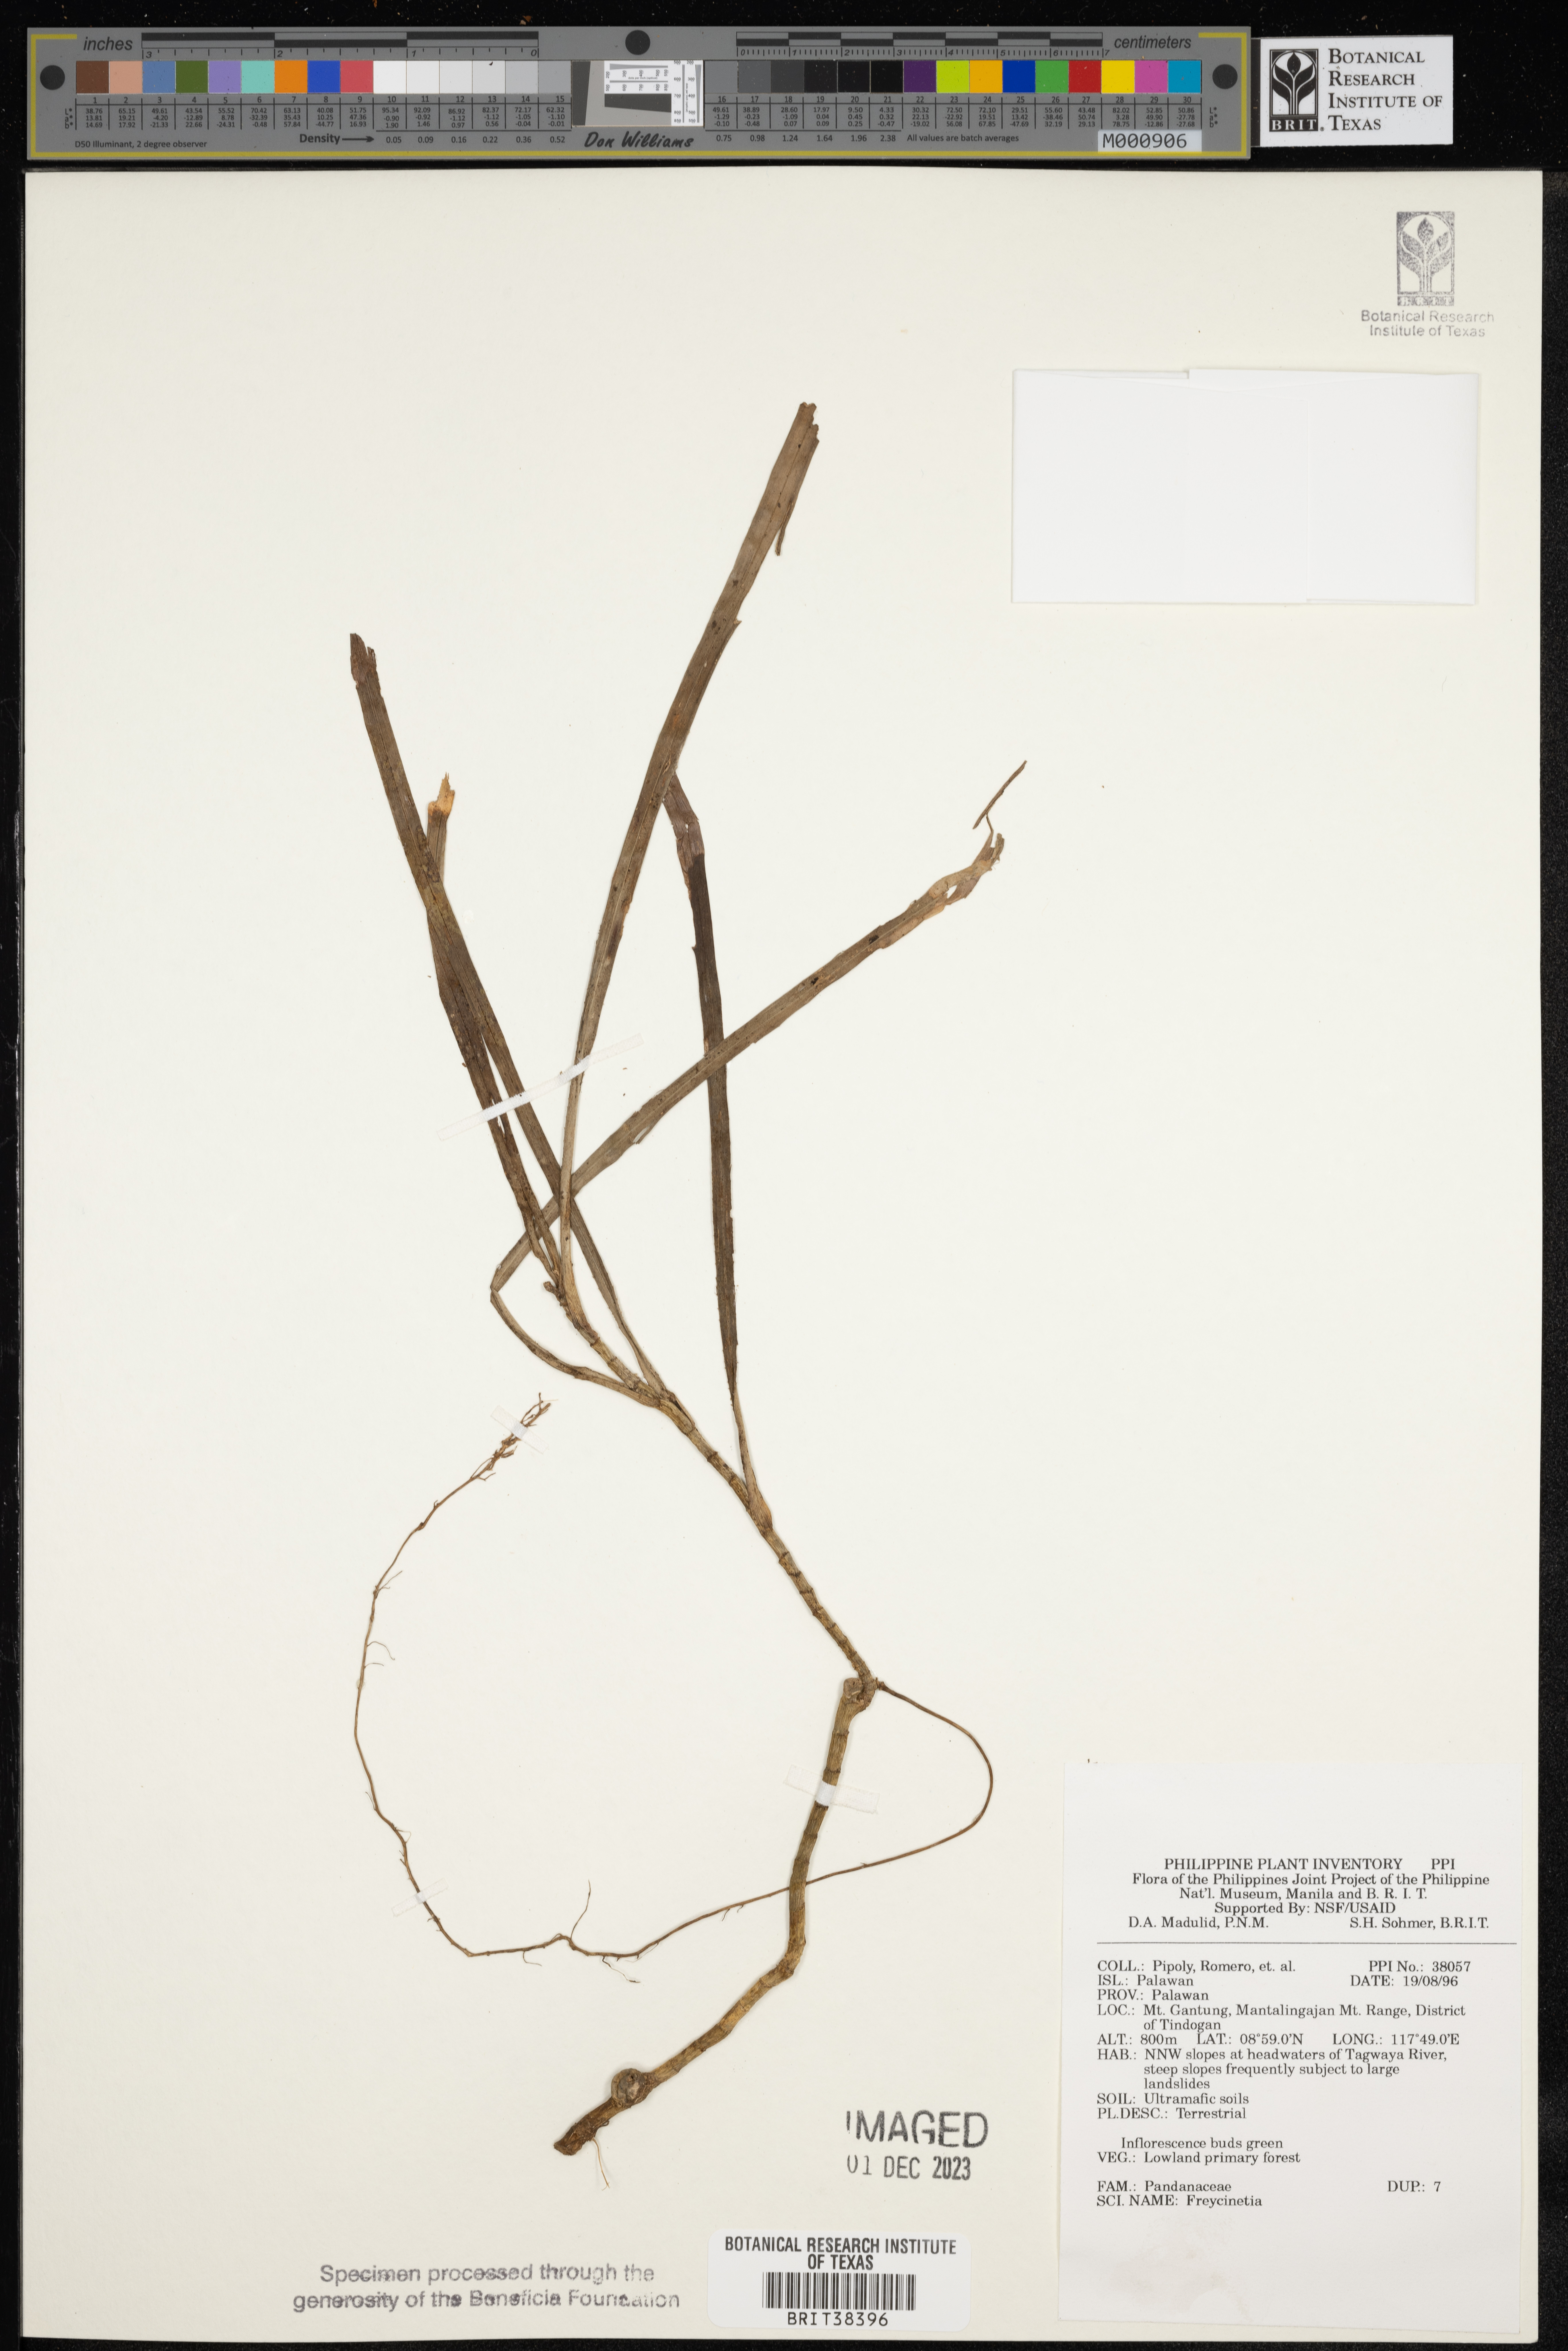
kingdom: Plantae
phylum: Tracheophyta
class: Liliopsida
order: Pandanales
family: Pandanaceae
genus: Freycinetia
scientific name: Freycinetia
